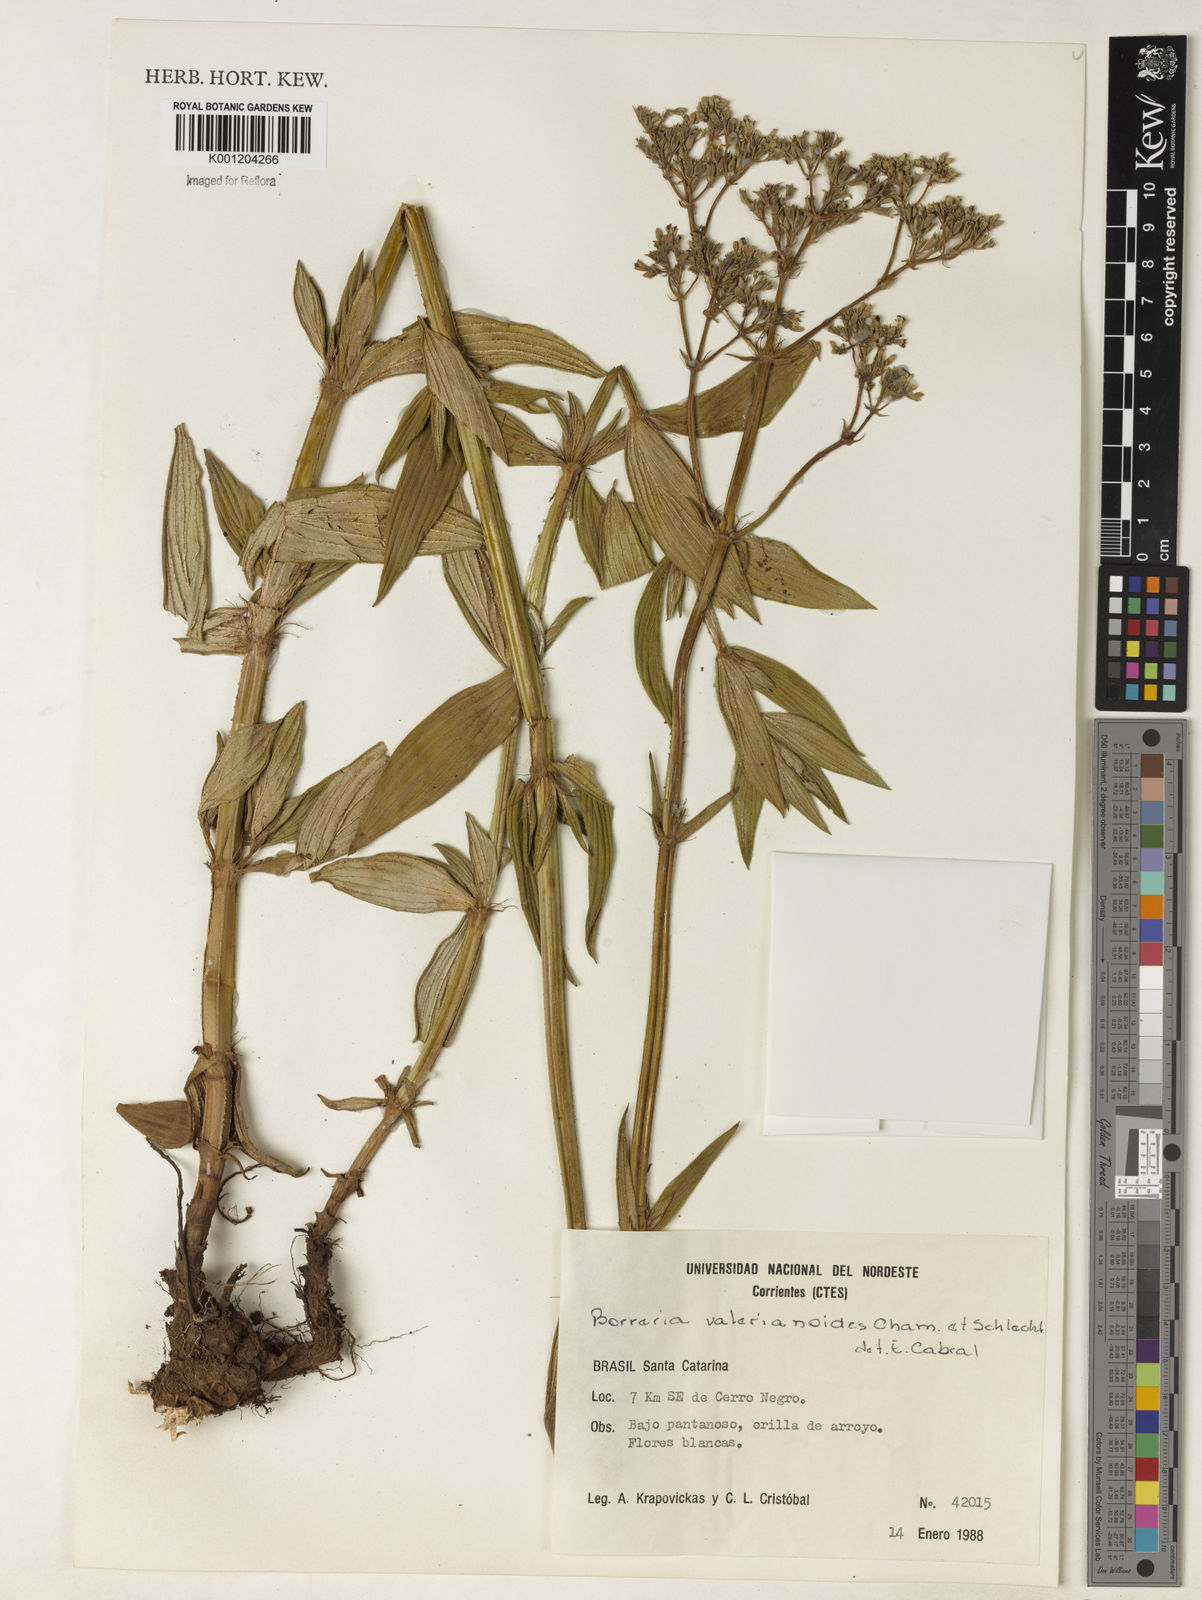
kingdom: Plantae
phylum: Tracheophyta
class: Magnoliopsida
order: Gentianales
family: Rubiaceae
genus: Galianthe
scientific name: Galianthe valerianoides
